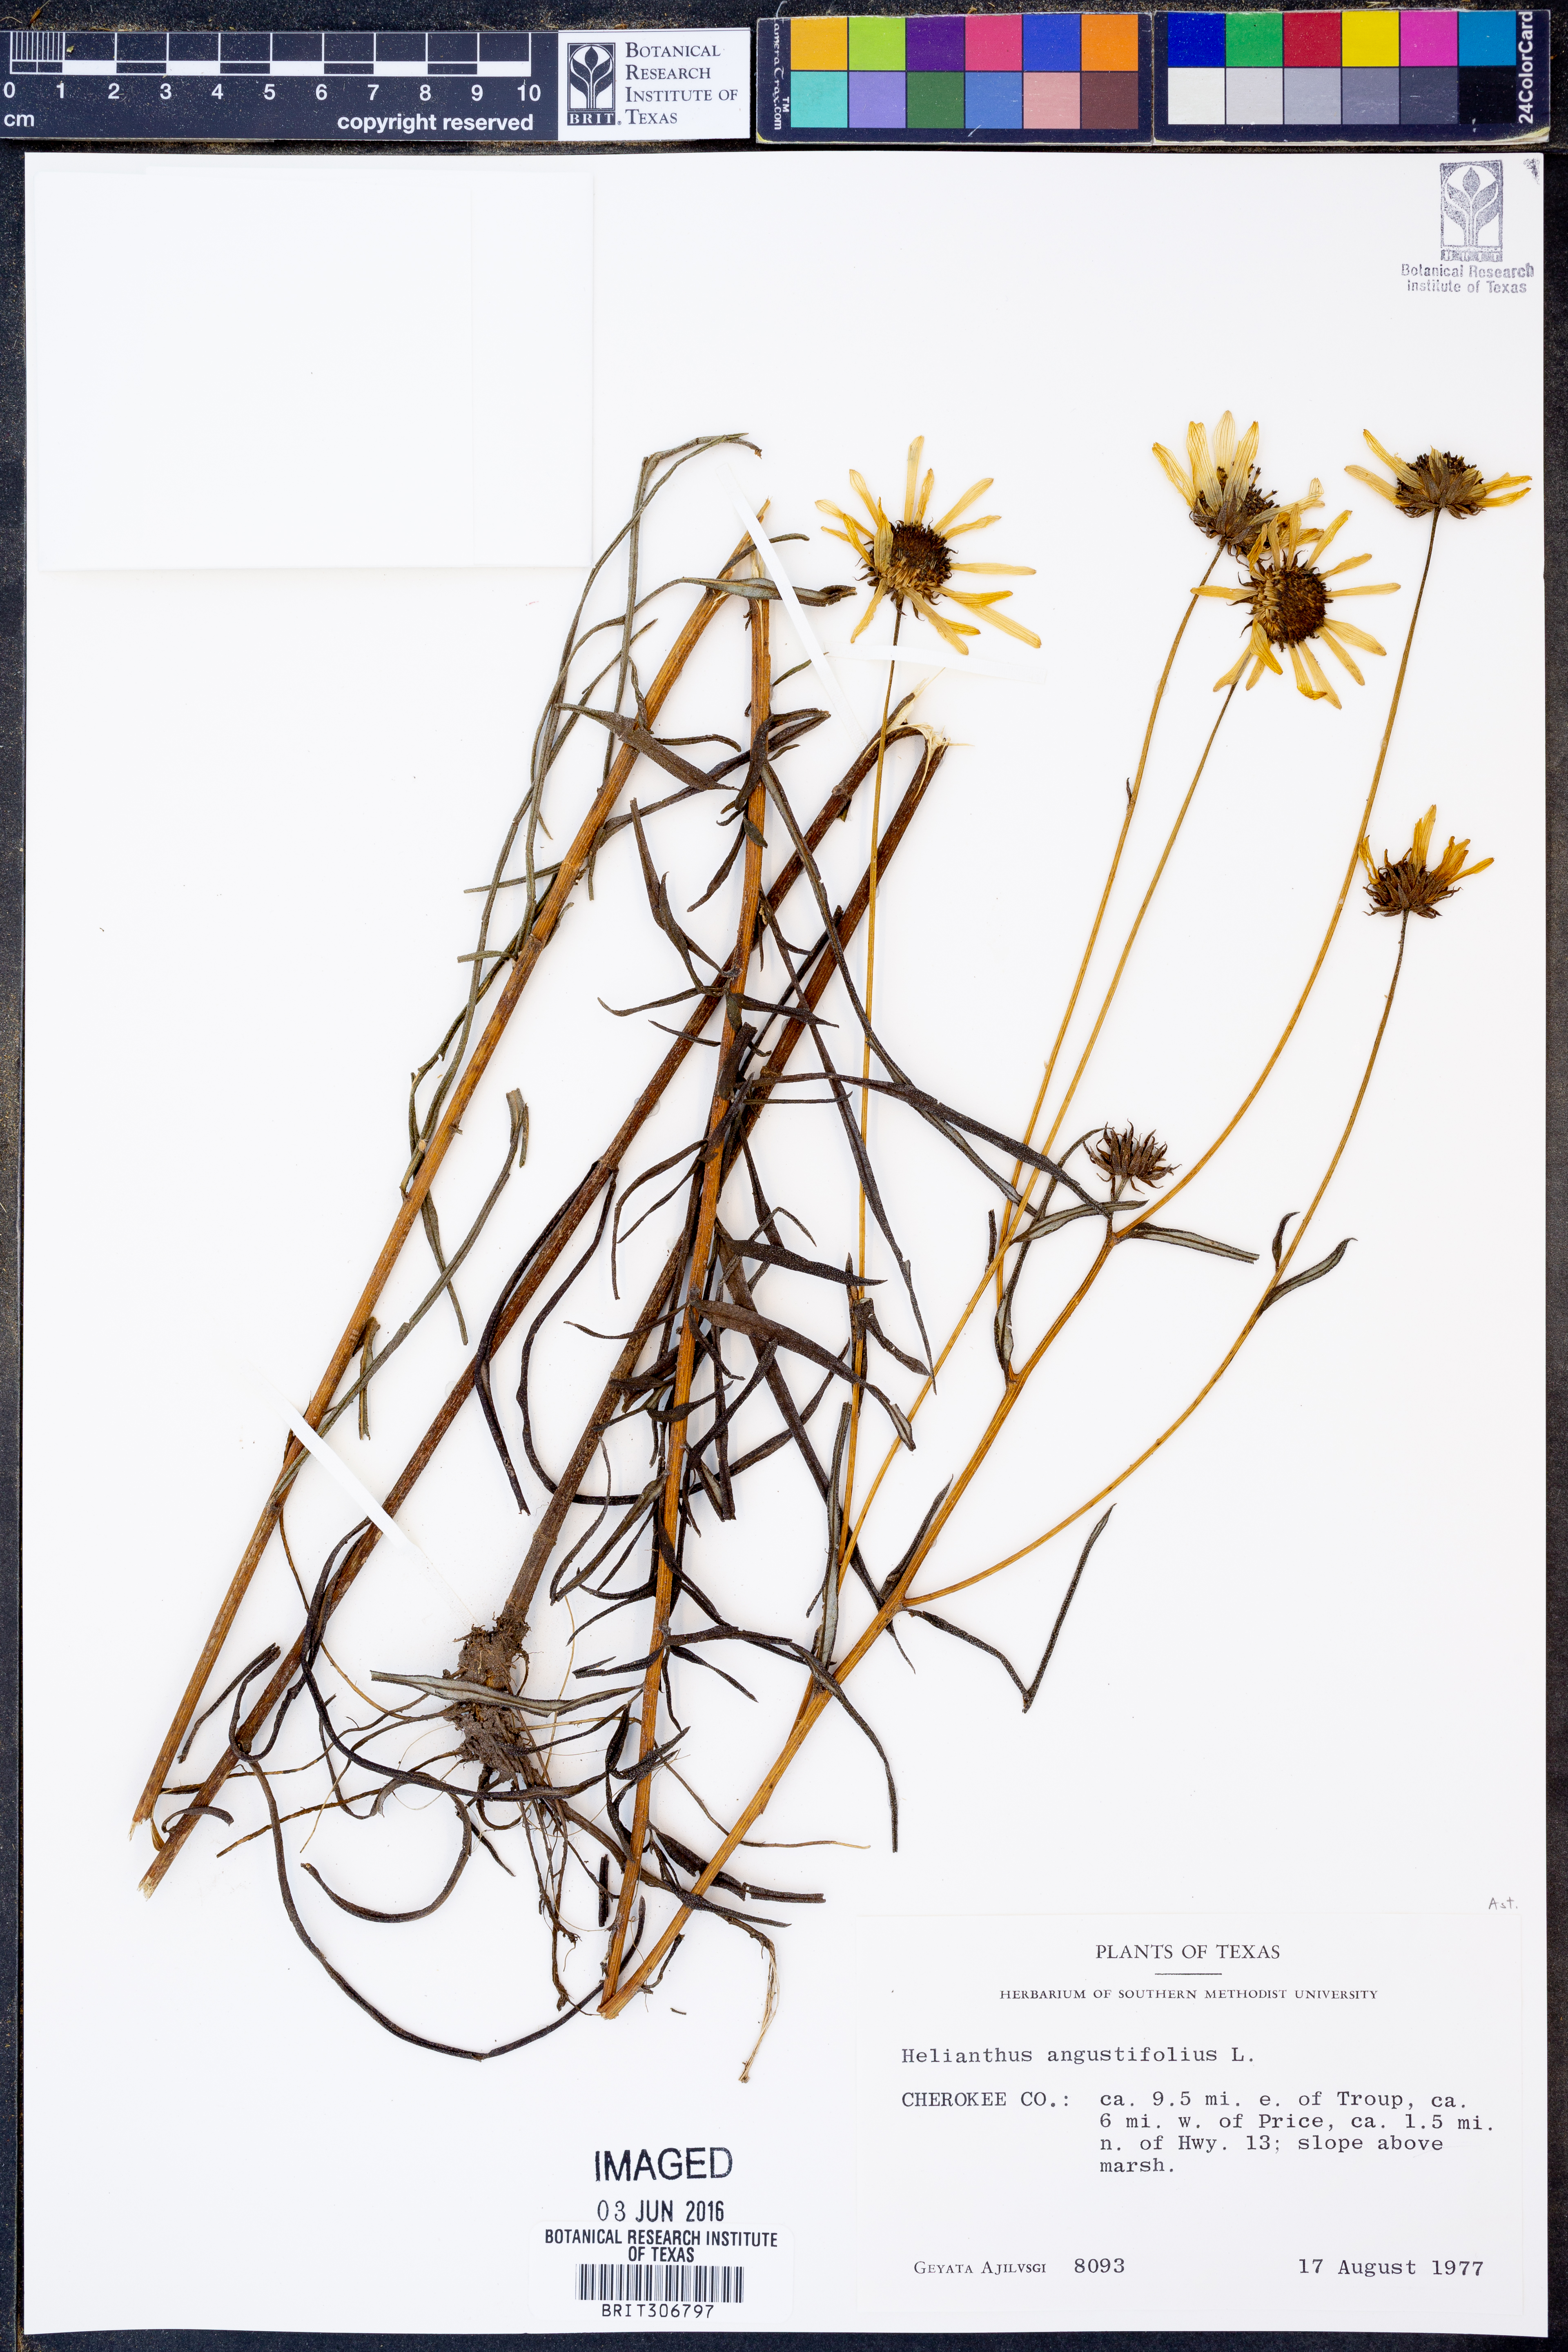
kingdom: Plantae
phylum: Tracheophyta
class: Magnoliopsida
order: Asterales
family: Asteraceae
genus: Helianthus
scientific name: Helianthus angustifolius
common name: Swamp sunflower
